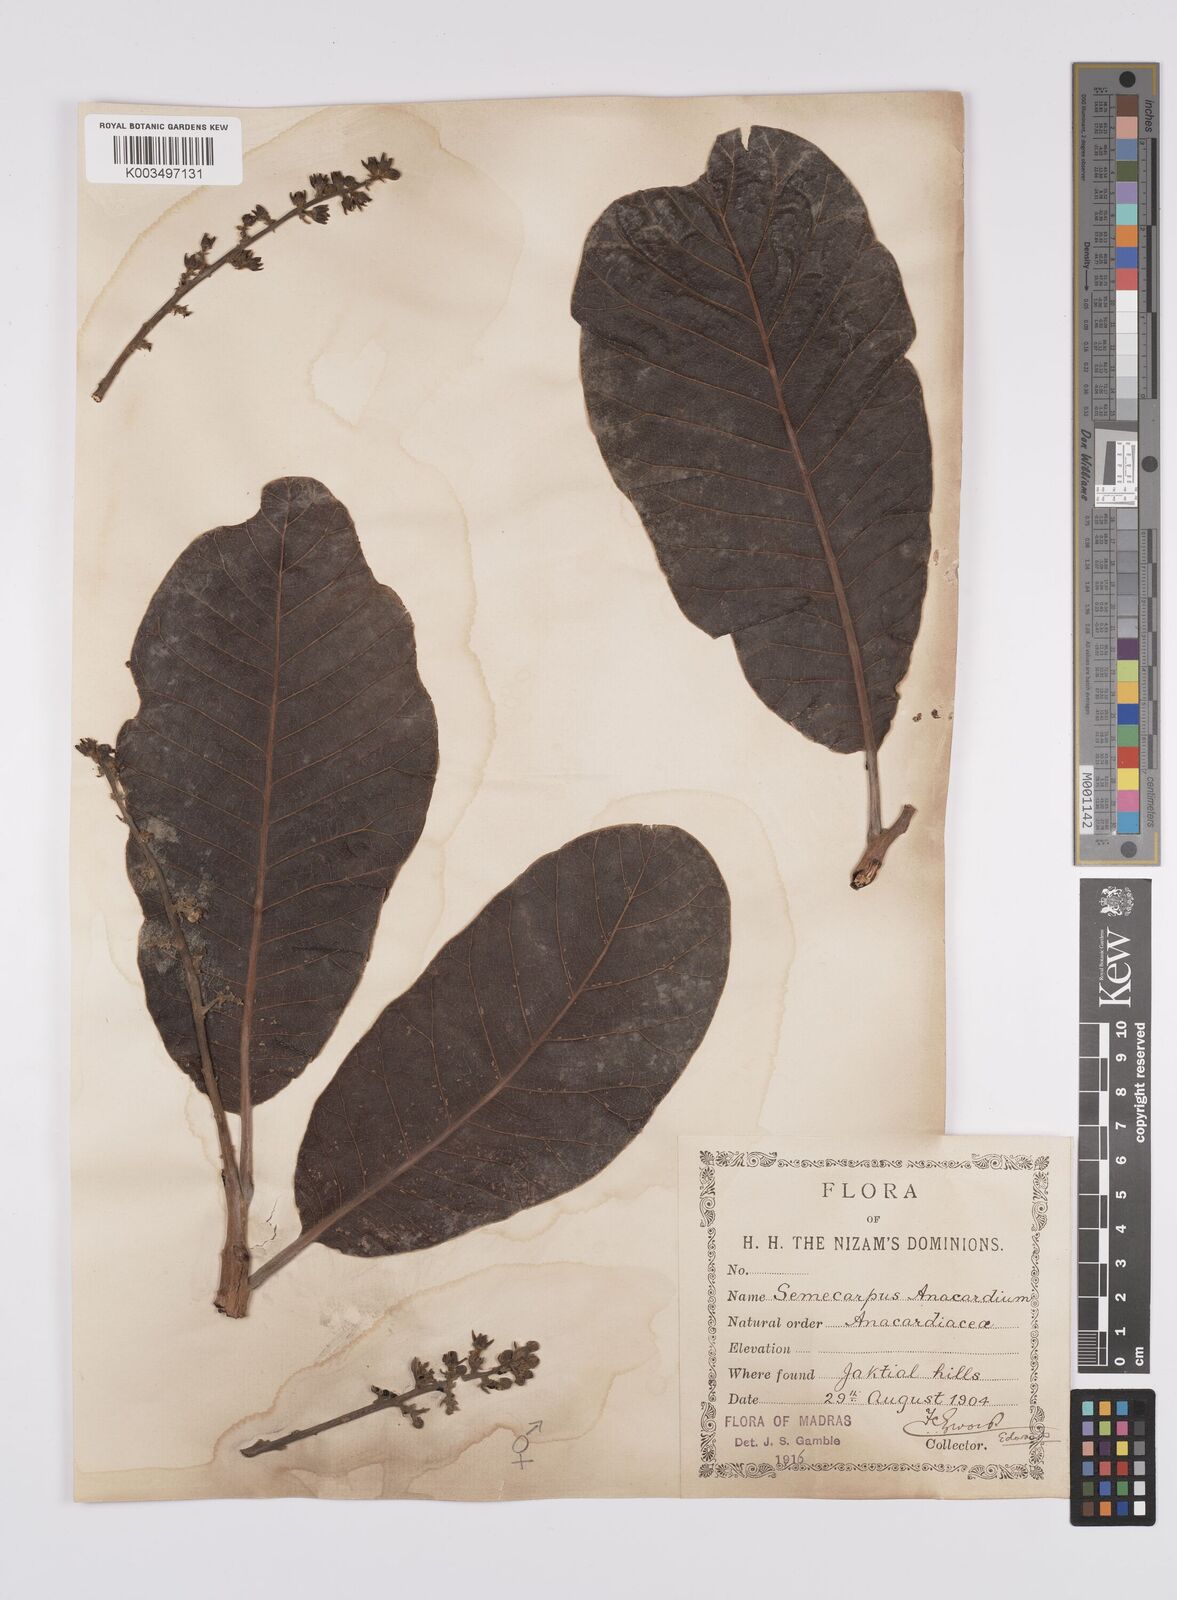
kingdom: Plantae
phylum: Tracheophyta
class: Magnoliopsida
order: Sapindales
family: Anacardiaceae
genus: Semecarpus
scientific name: Semecarpus anacardium
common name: Marking nut-tree
